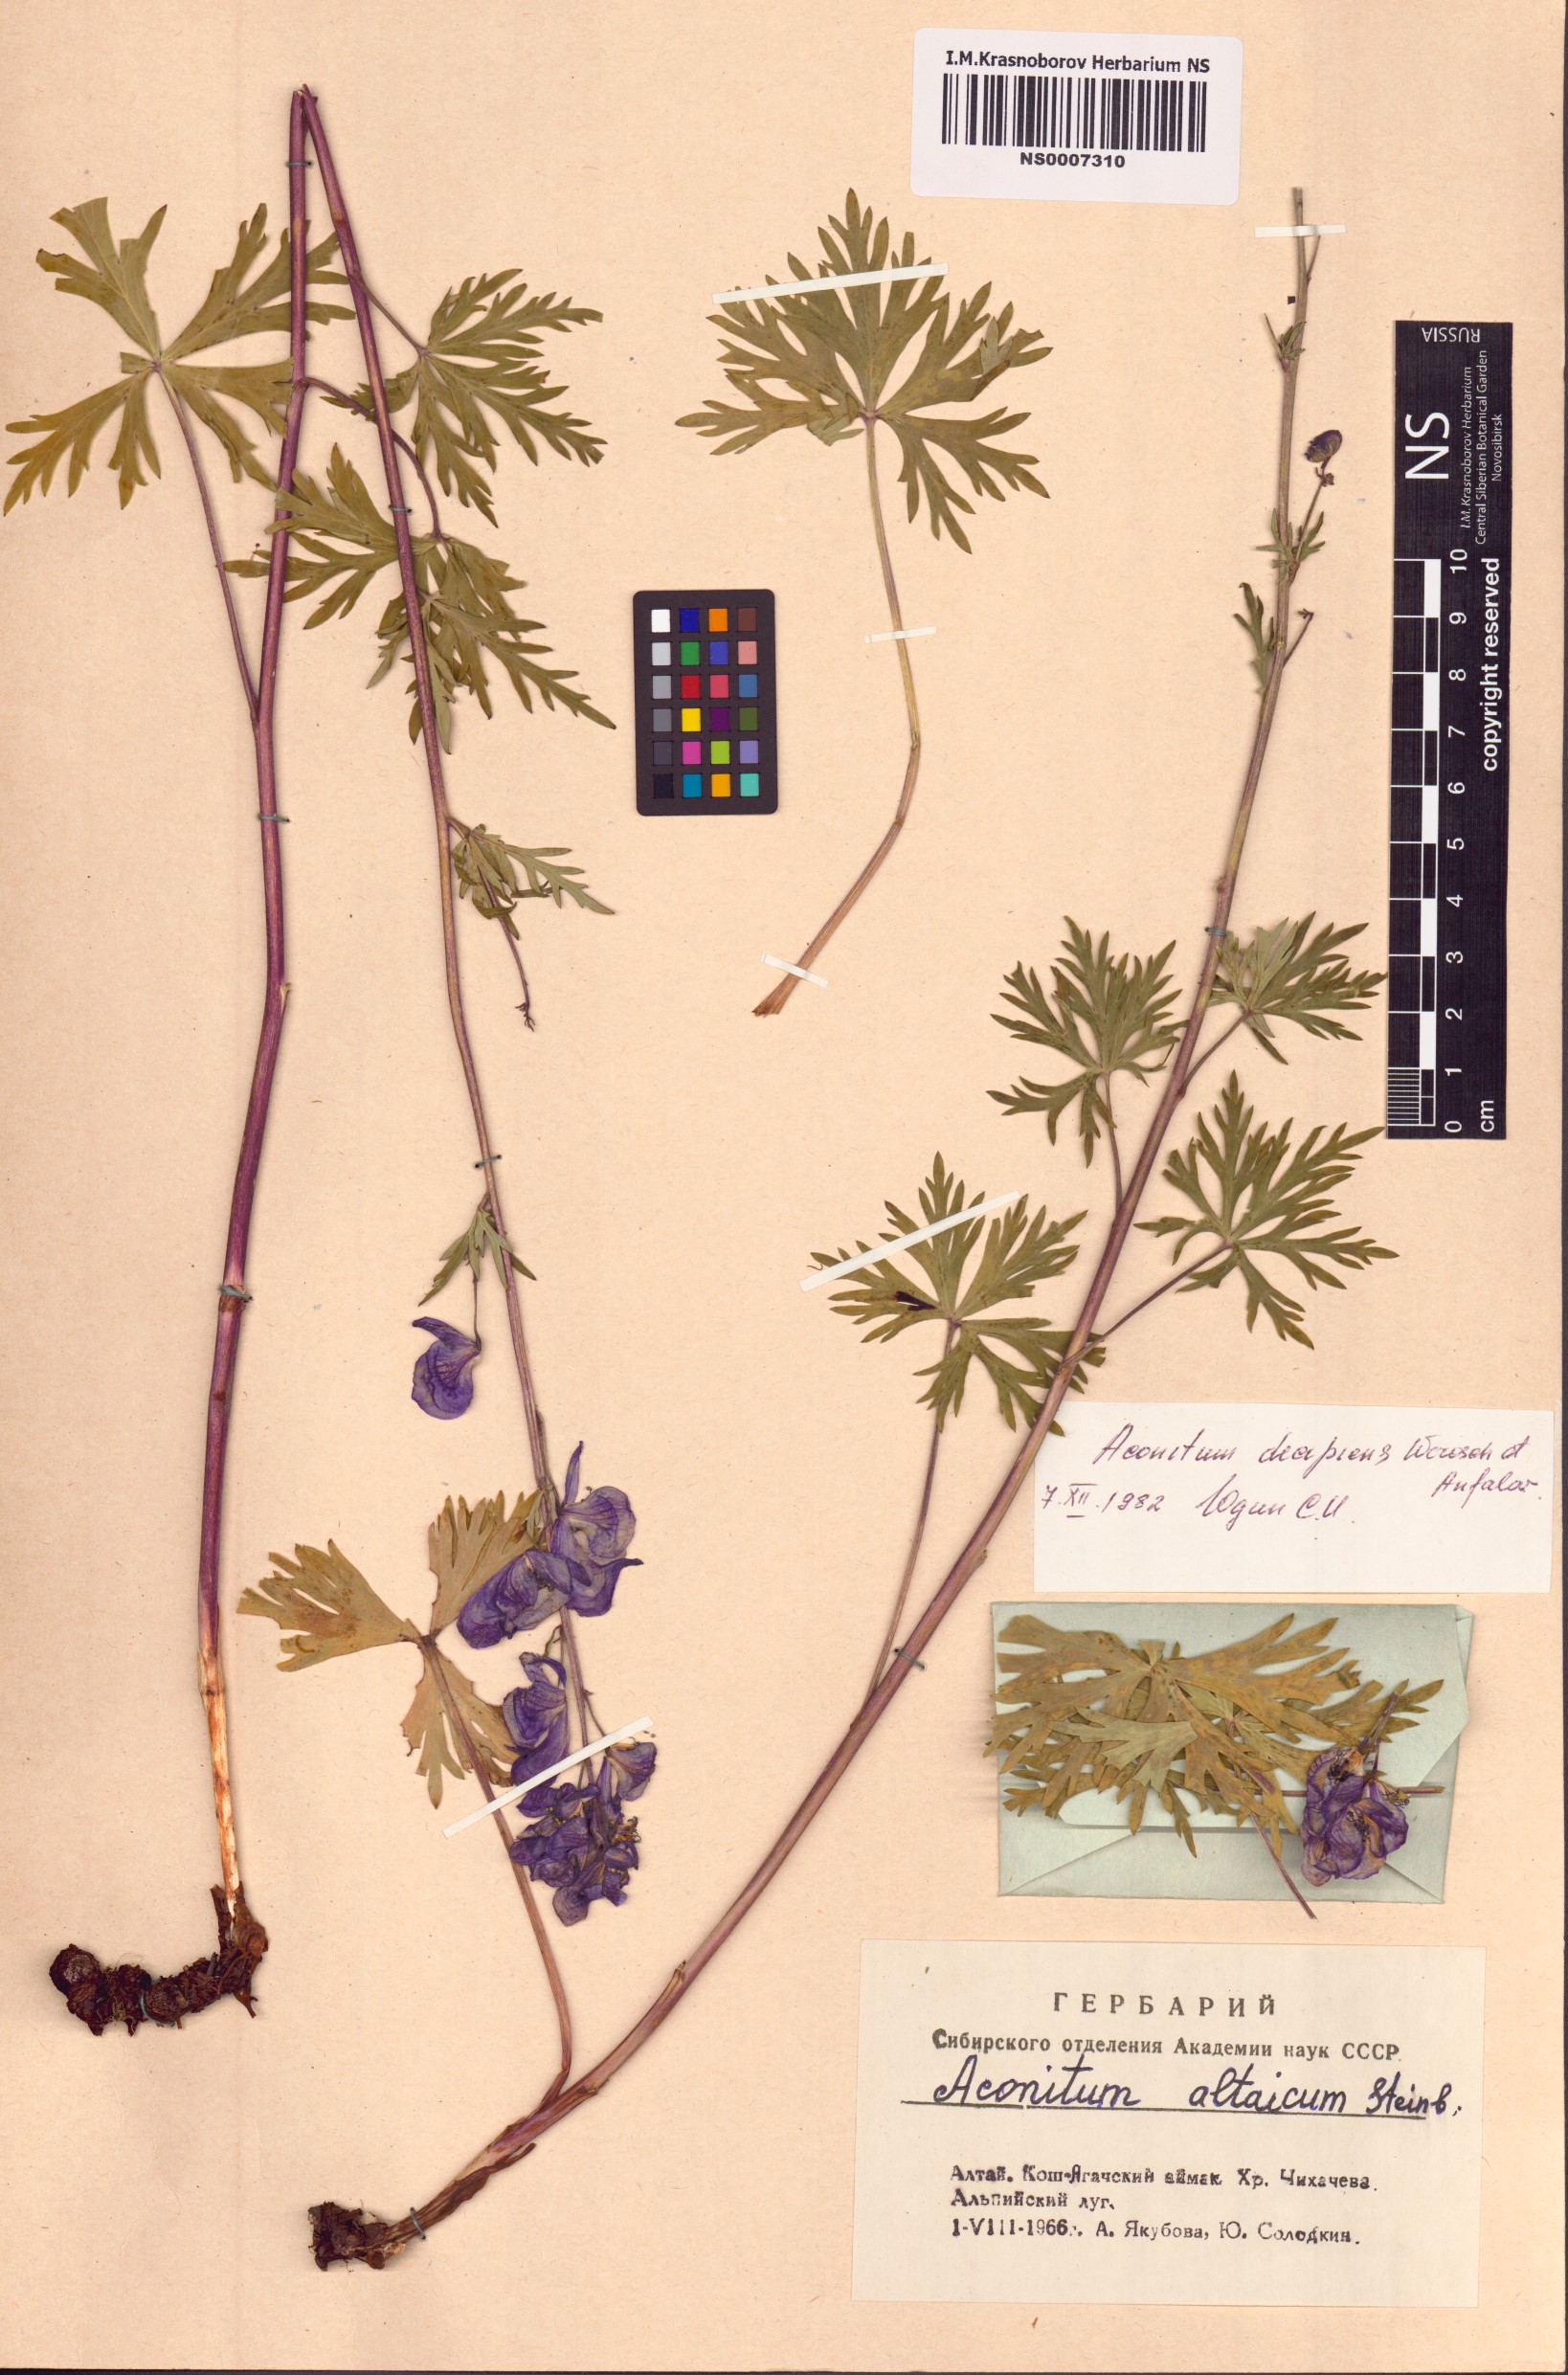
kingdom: Plantae
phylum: Tracheophyta
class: Magnoliopsida
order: Ranunculales
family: Ranunculaceae
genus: Aconitum
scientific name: Aconitum decipiens
